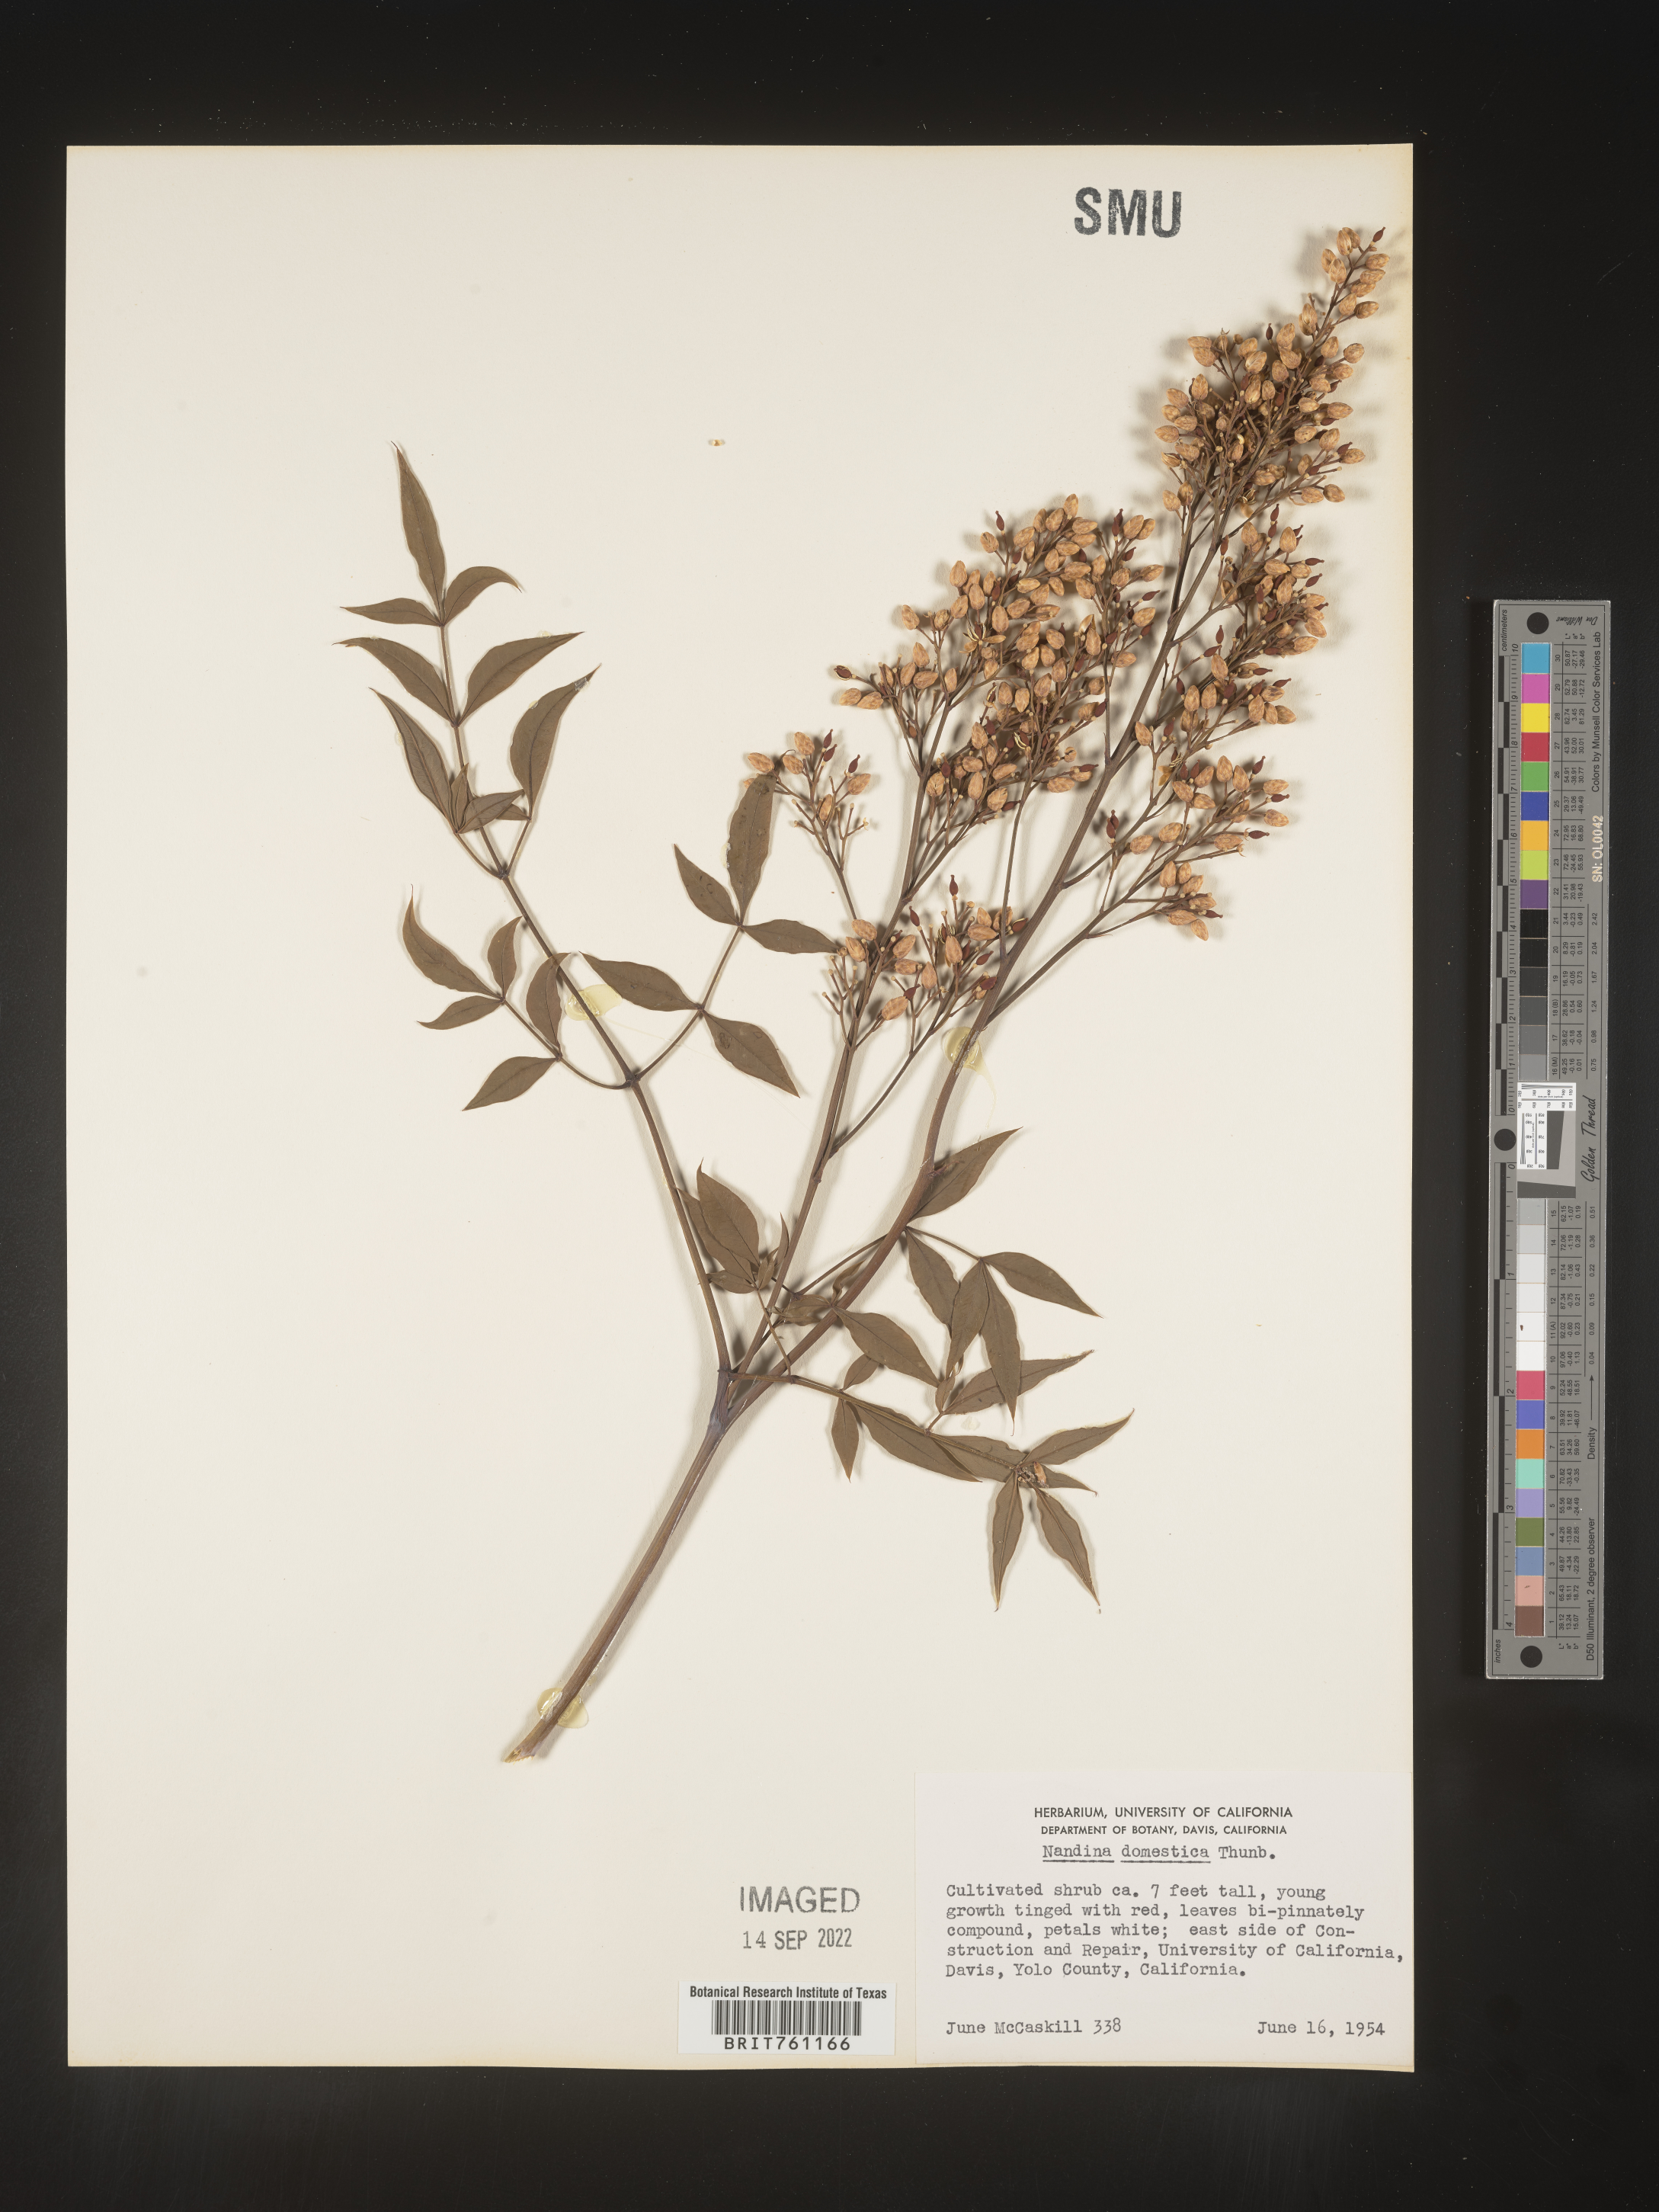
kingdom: Plantae
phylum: Tracheophyta
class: Magnoliopsida
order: Ranunculales
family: Berberidaceae
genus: Nandina
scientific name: Nandina
